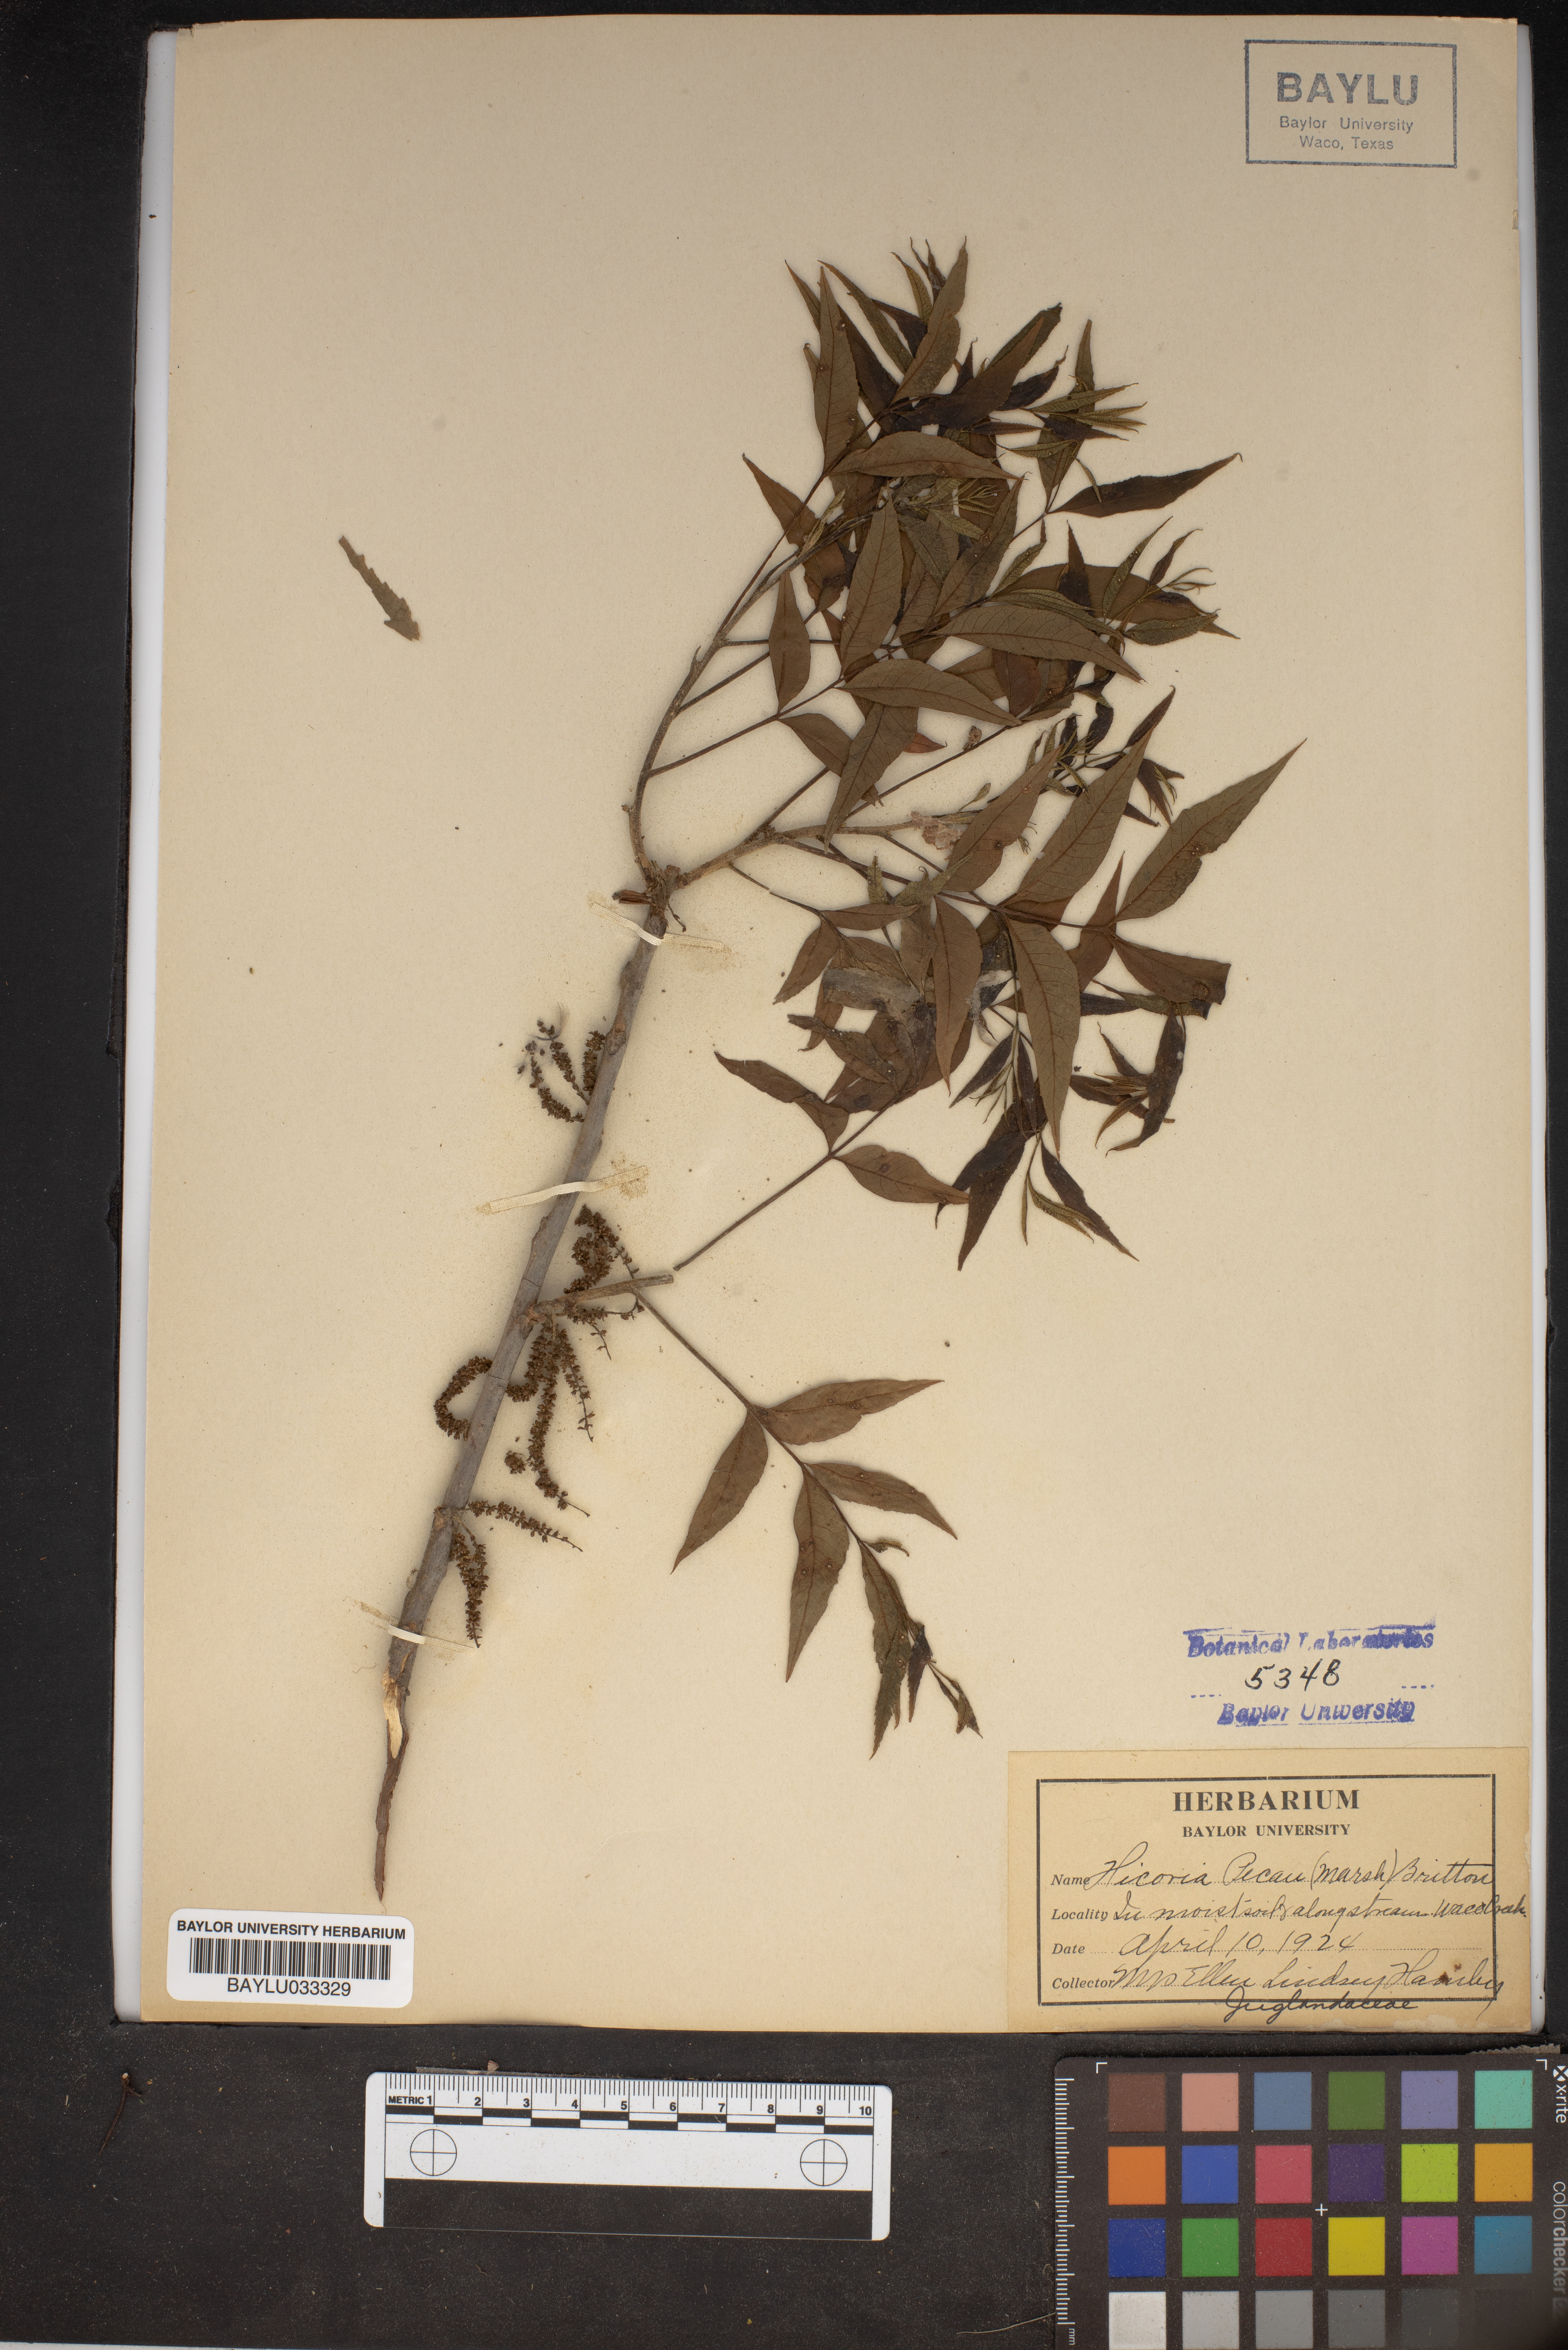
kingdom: Plantae
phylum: Tracheophyta
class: Magnoliopsida
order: Fagales
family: Juglandaceae
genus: Carya
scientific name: Carya illinoinensis
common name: Pecan
